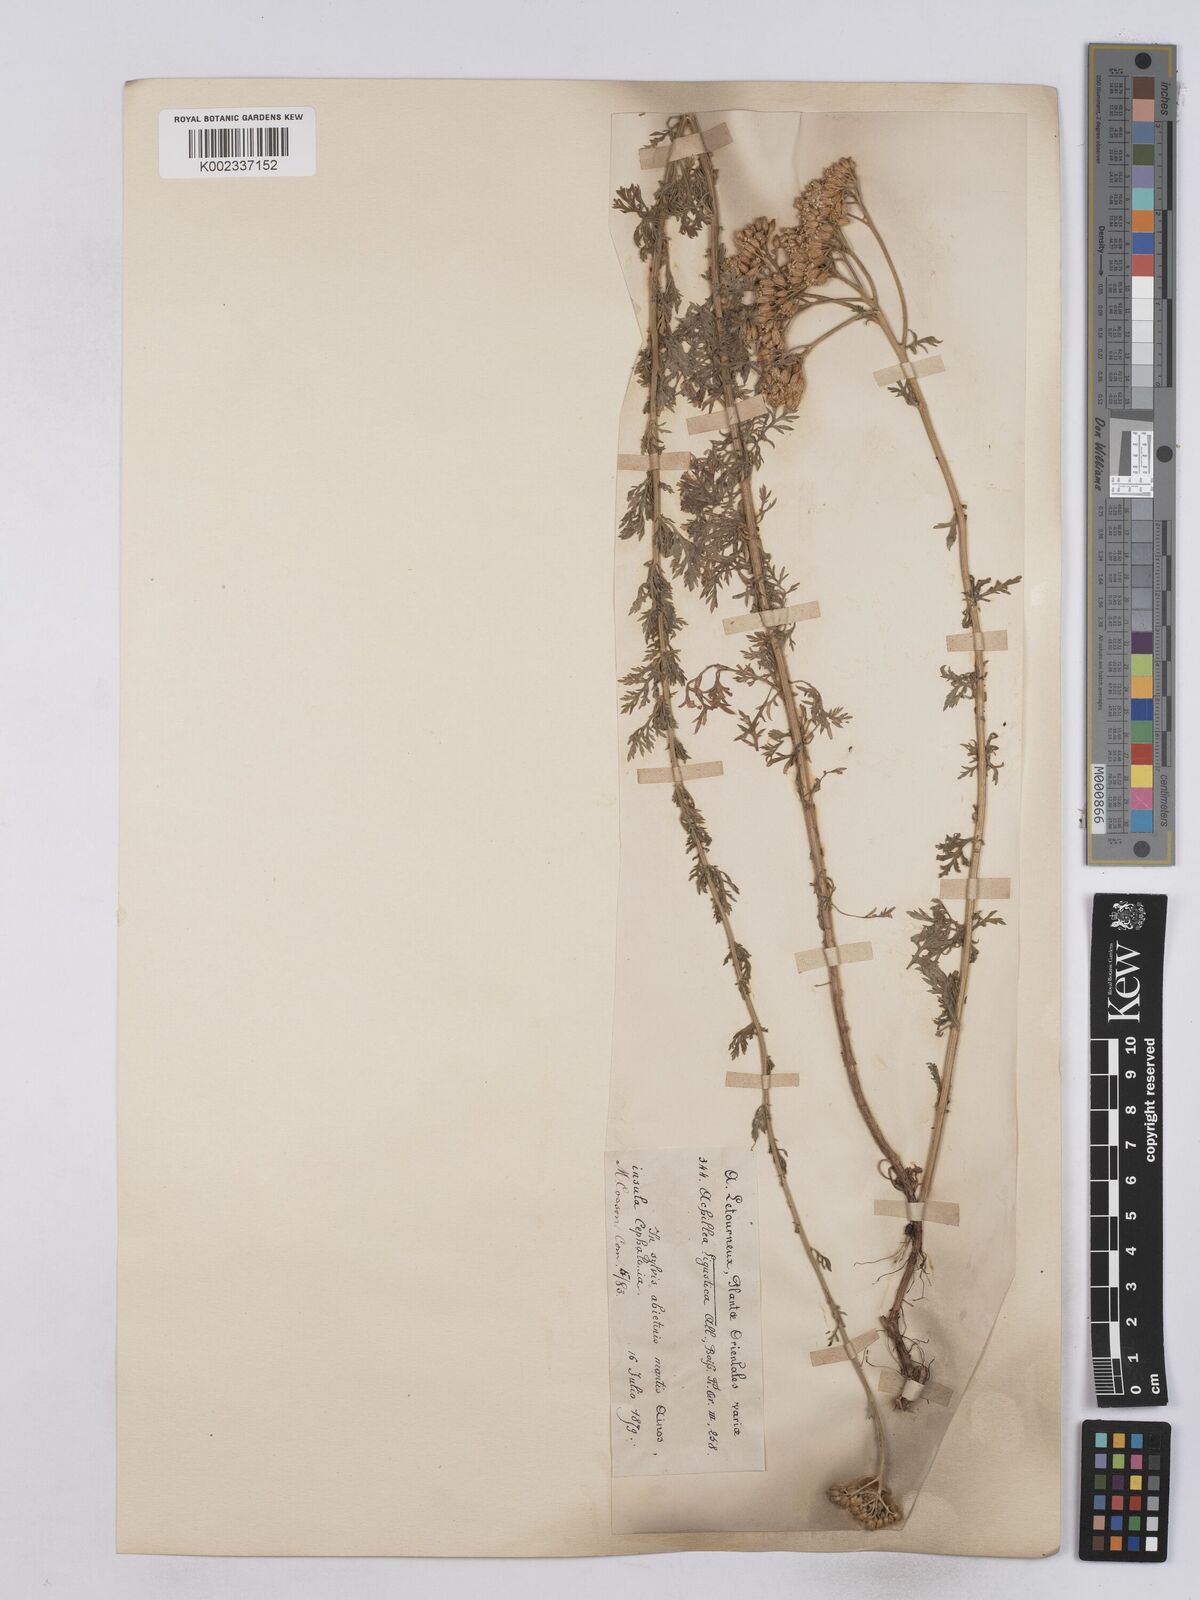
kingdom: Plantae
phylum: Tracheophyta
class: Magnoliopsida
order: Asterales
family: Asteraceae
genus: Achillea
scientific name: Achillea ligustica
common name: Southern yarrow
